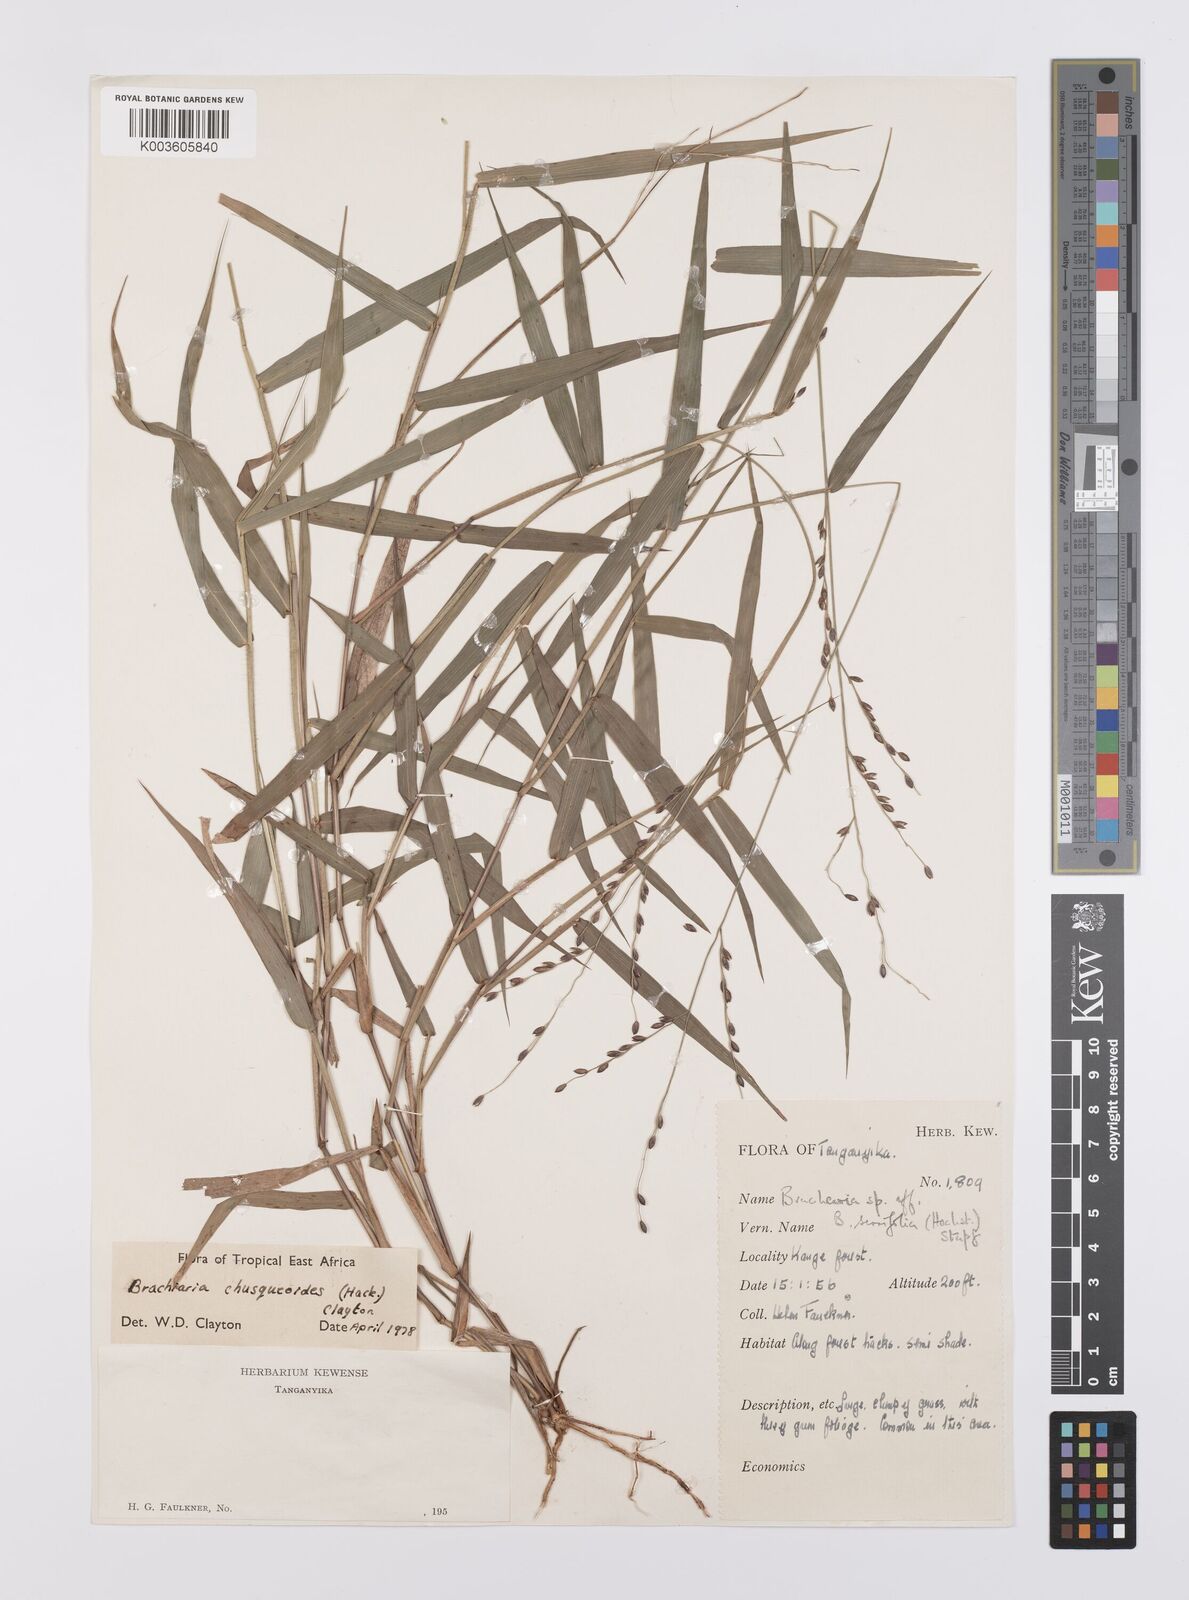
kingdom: Plantae
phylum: Tracheophyta
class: Liliopsida
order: Poales
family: Poaceae
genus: Urochloa
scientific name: Urochloa chusqueoides
